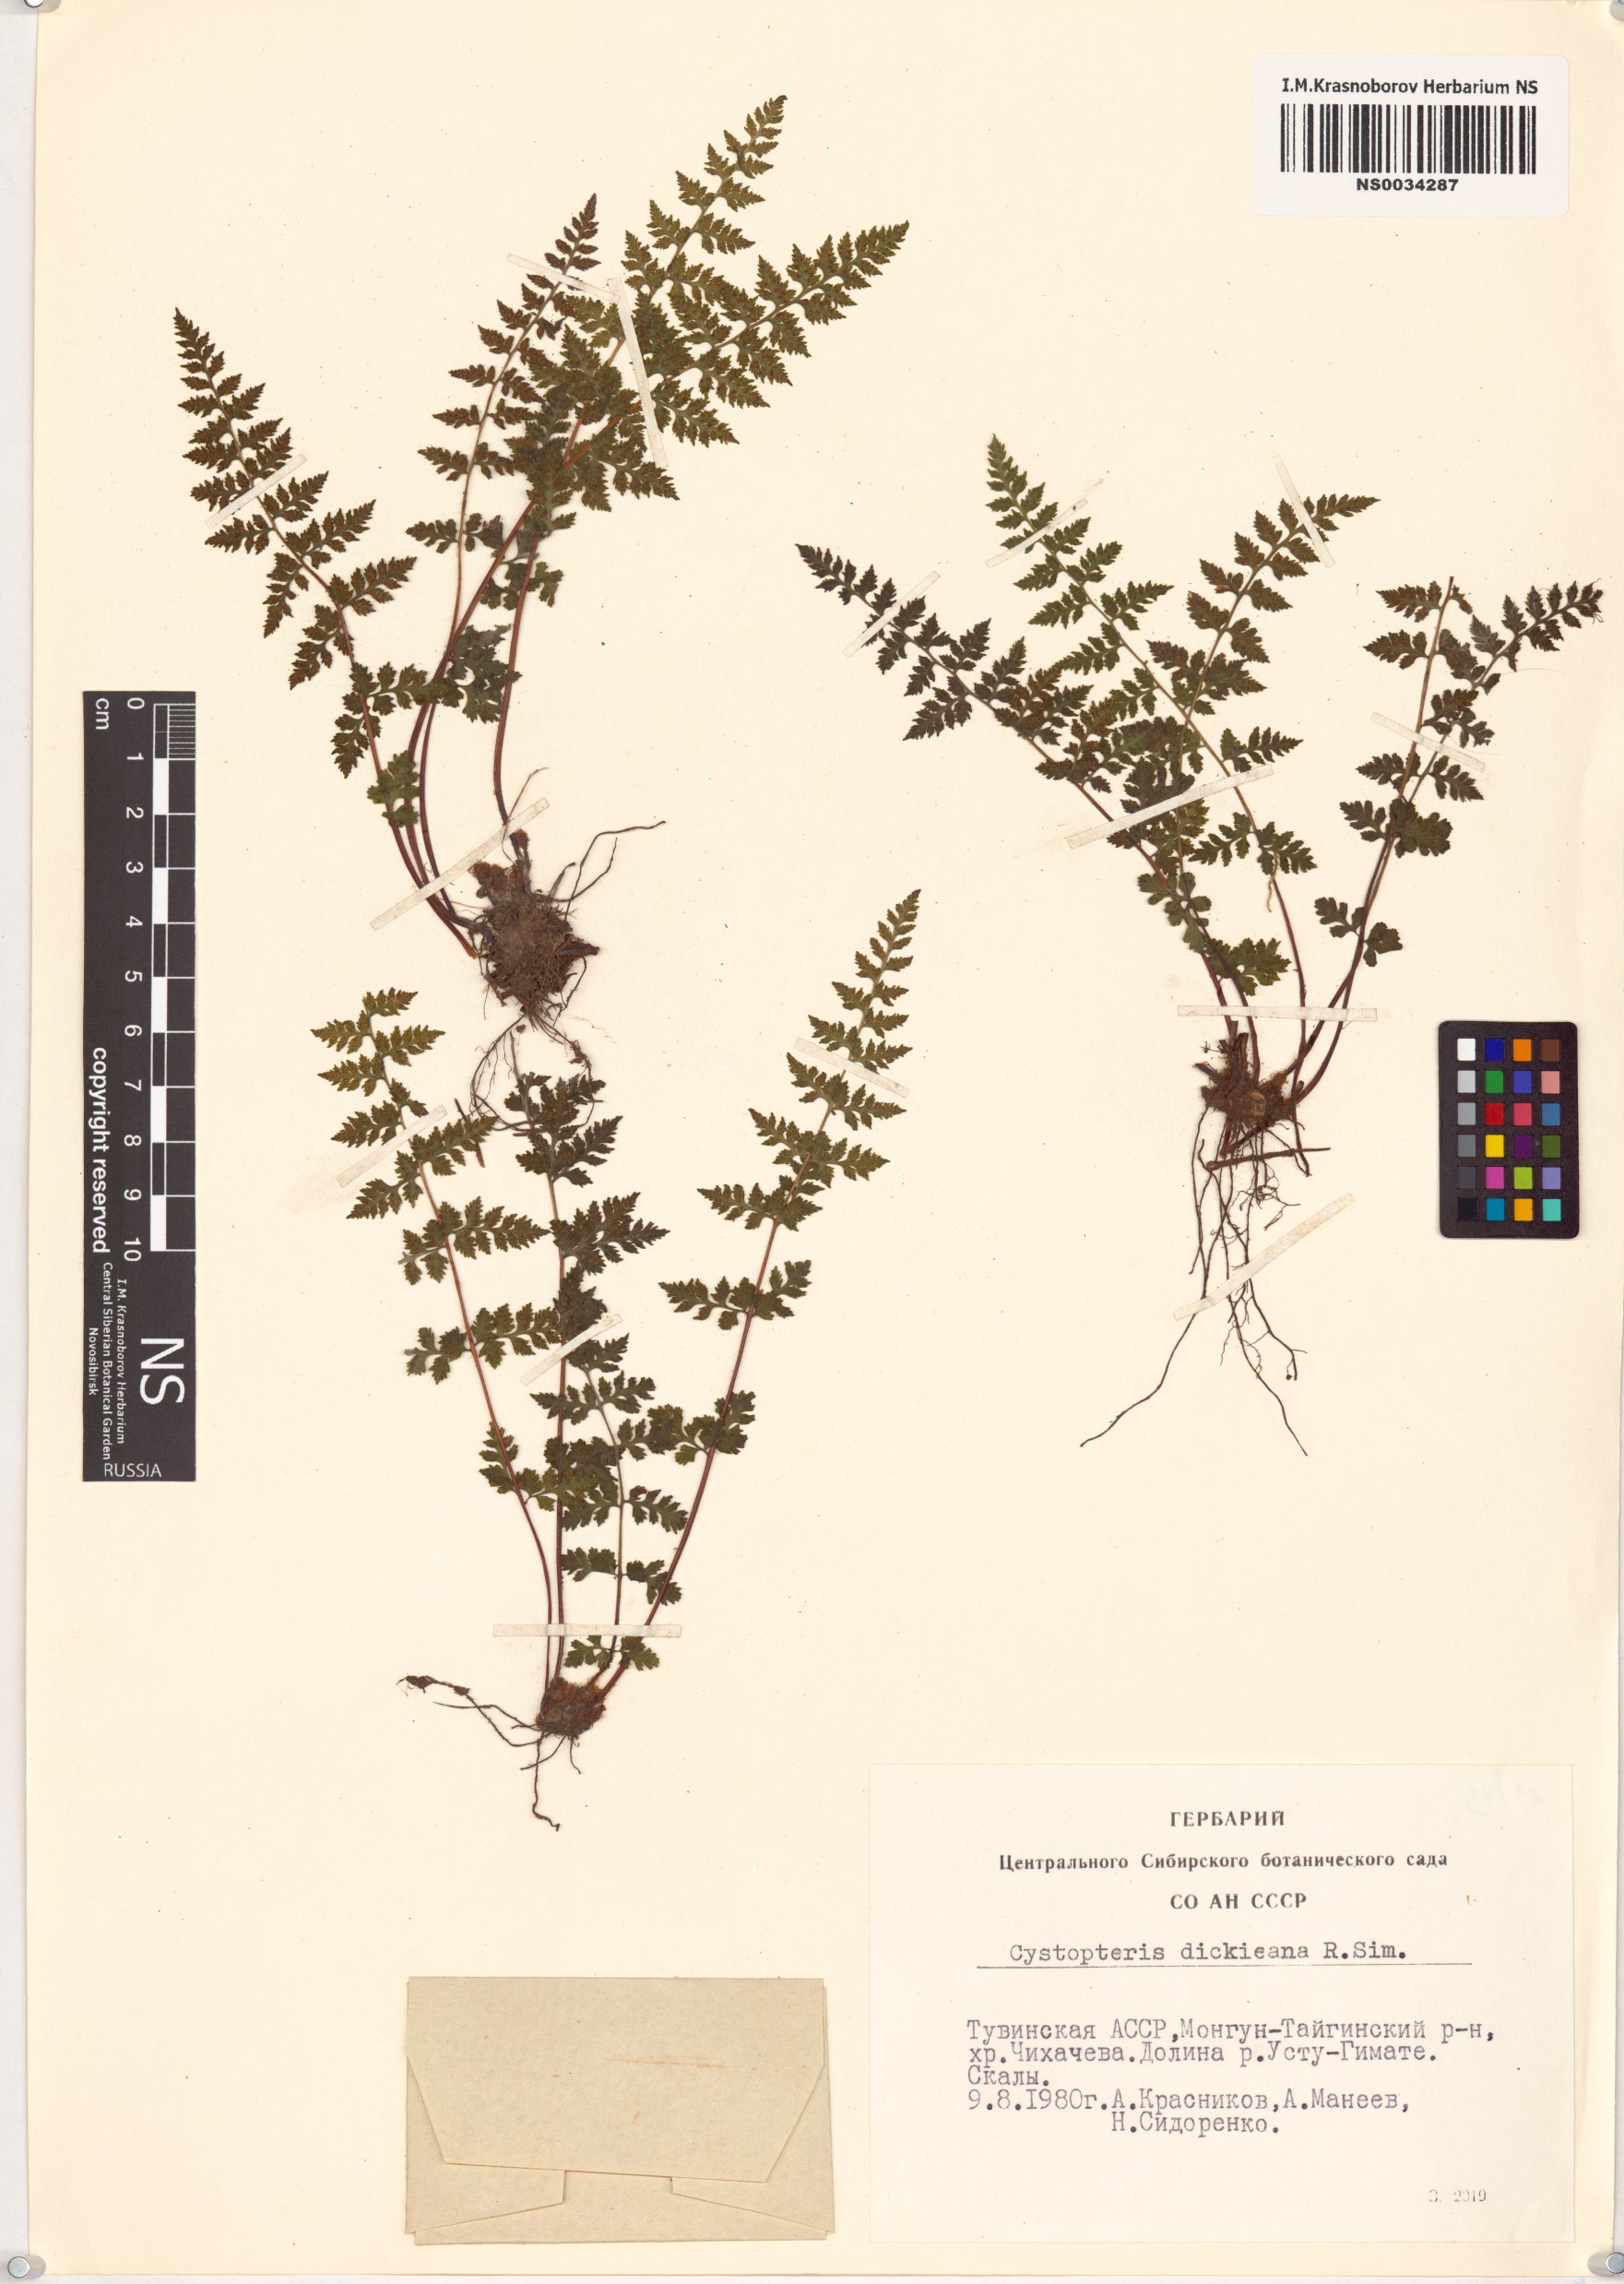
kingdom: Plantae
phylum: Tracheophyta
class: Polypodiopsida
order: Polypodiales
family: Cystopteridaceae
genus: Cystopteris
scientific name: Cystopteris dickieana
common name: Dickie's bladder-fern
